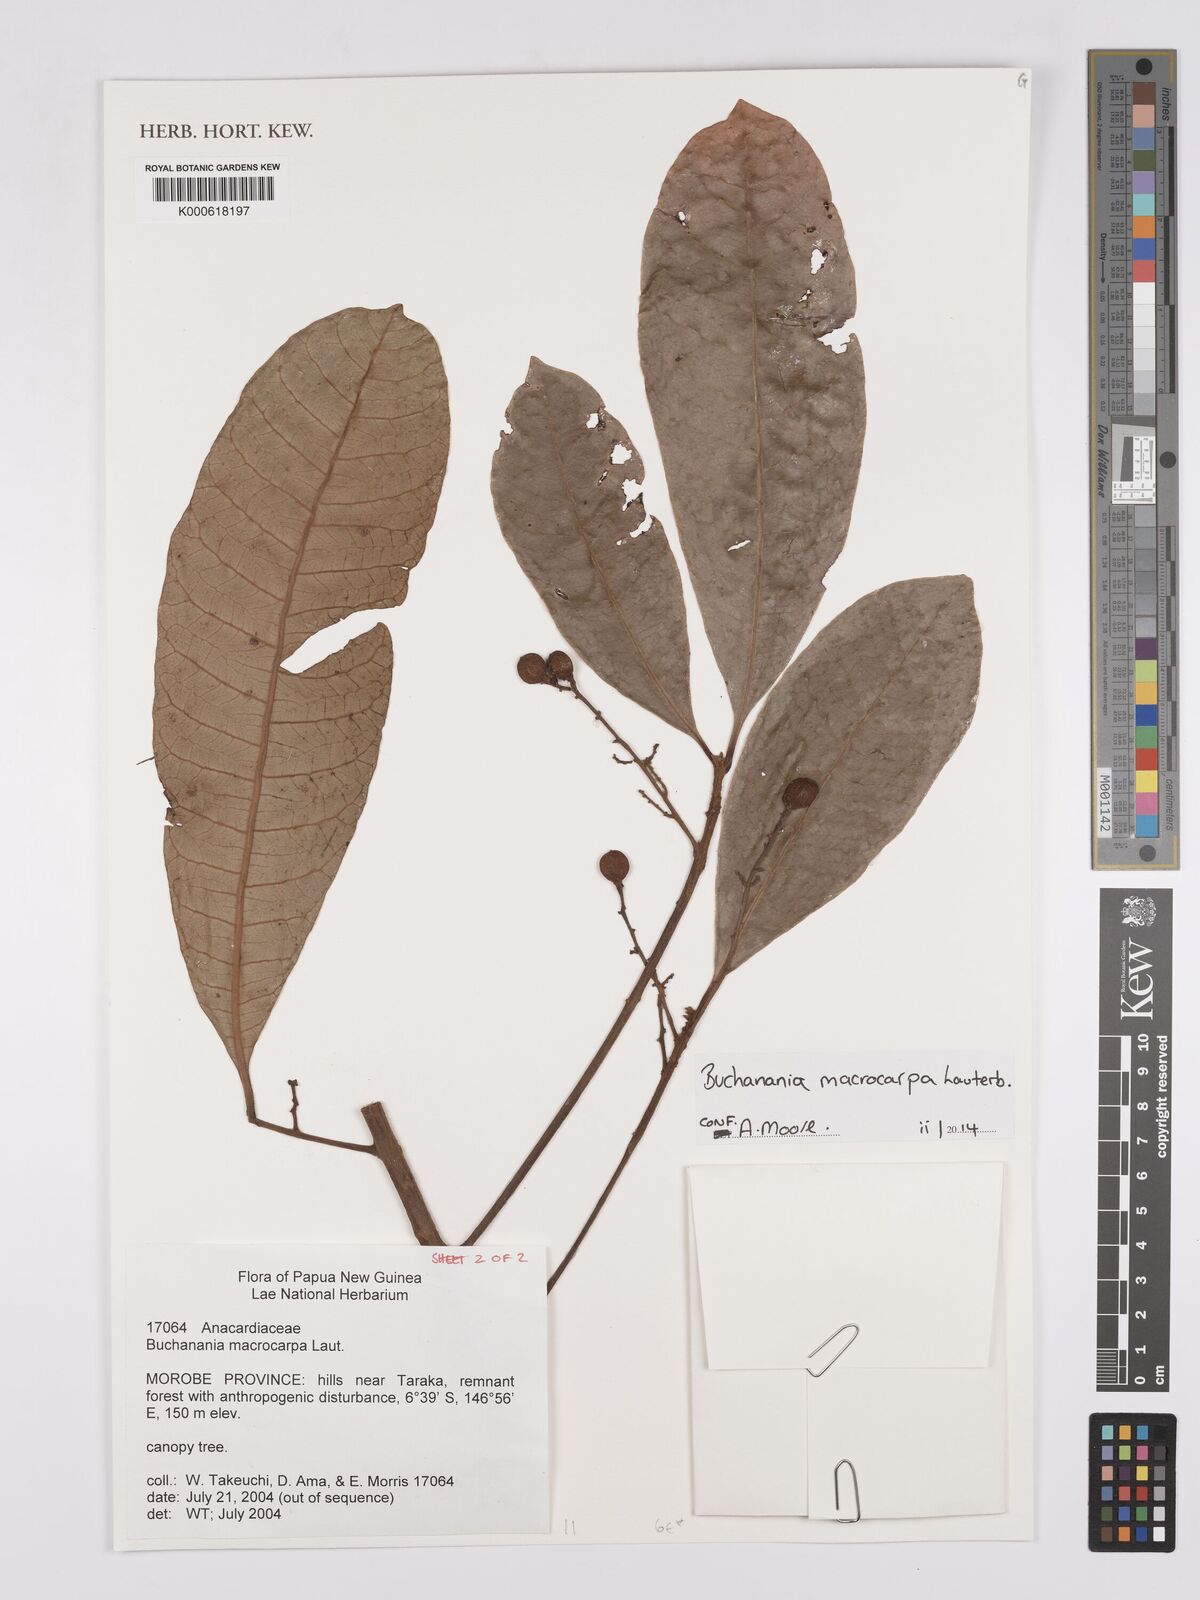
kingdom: Plantae
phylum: Tracheophyta
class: Magnoliopsida
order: Sapindales
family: Anacardiaceae
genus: Buchanania
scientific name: Buchanania macrocarpa
